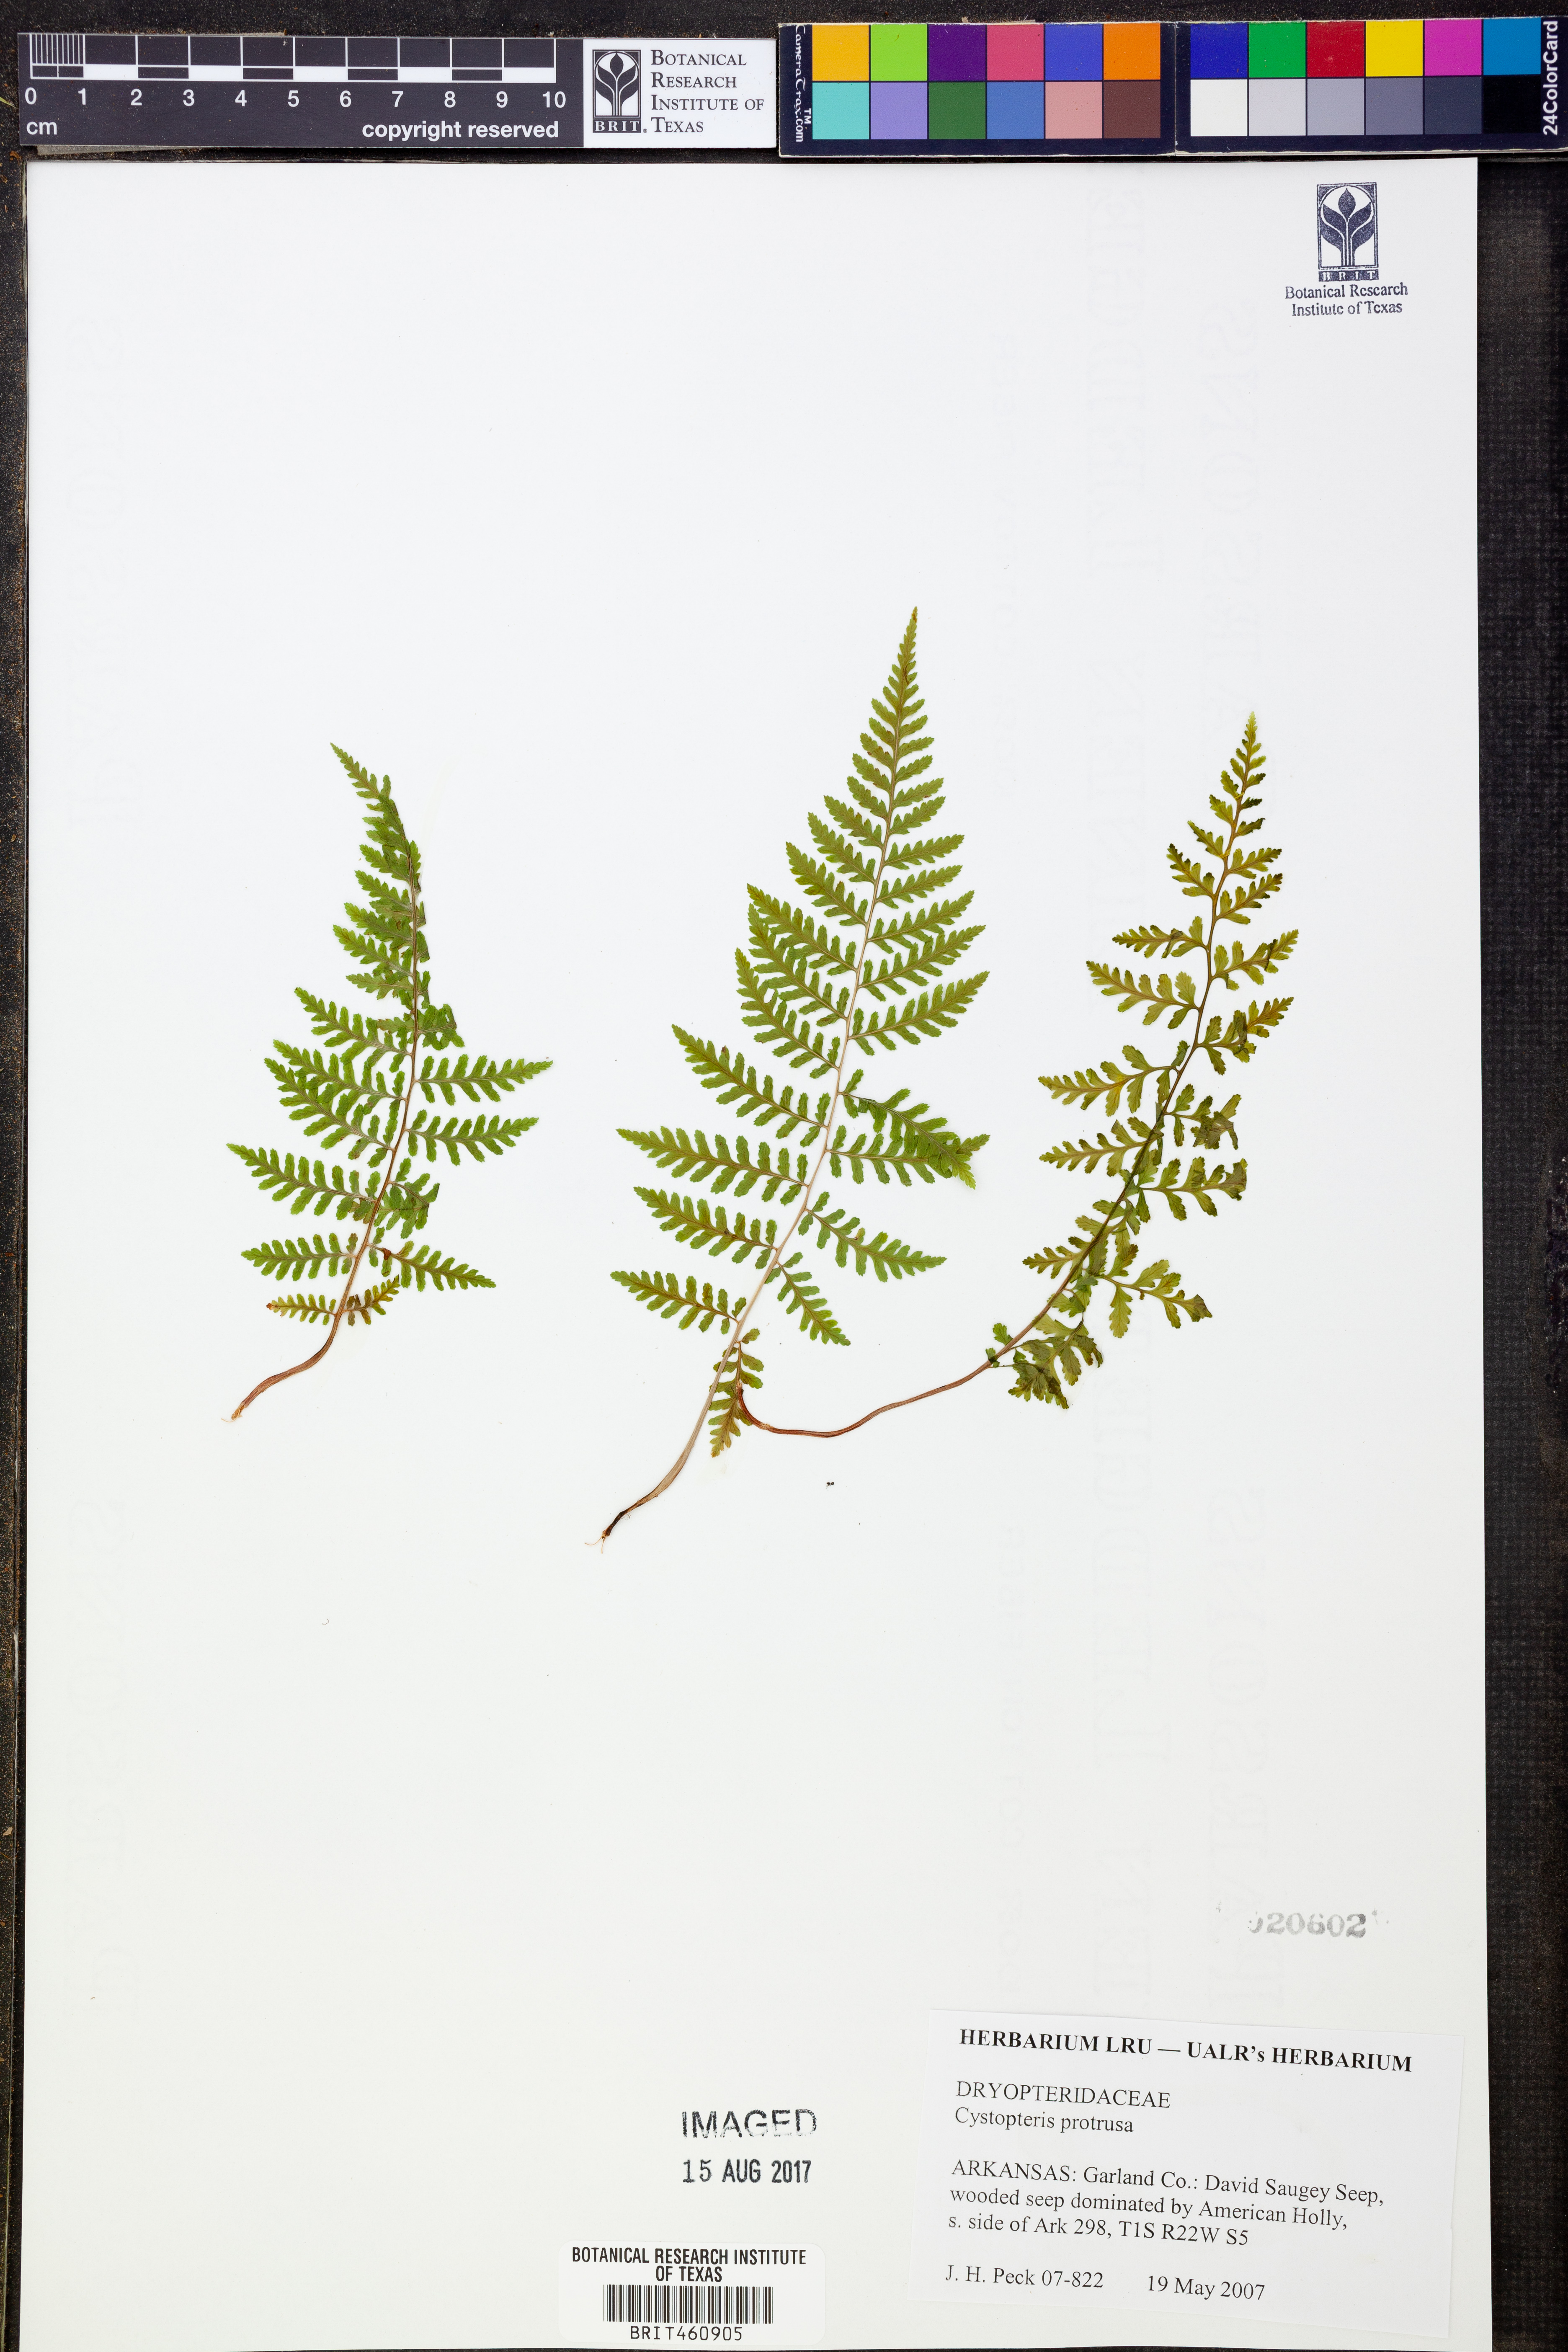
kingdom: Plantae
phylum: Tracheophyta
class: Polypodiopsida
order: Polypodiales
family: Cystopteridaceae
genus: Cystopteris
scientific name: Cystopteris protrusa
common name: Lowland brittle fern
